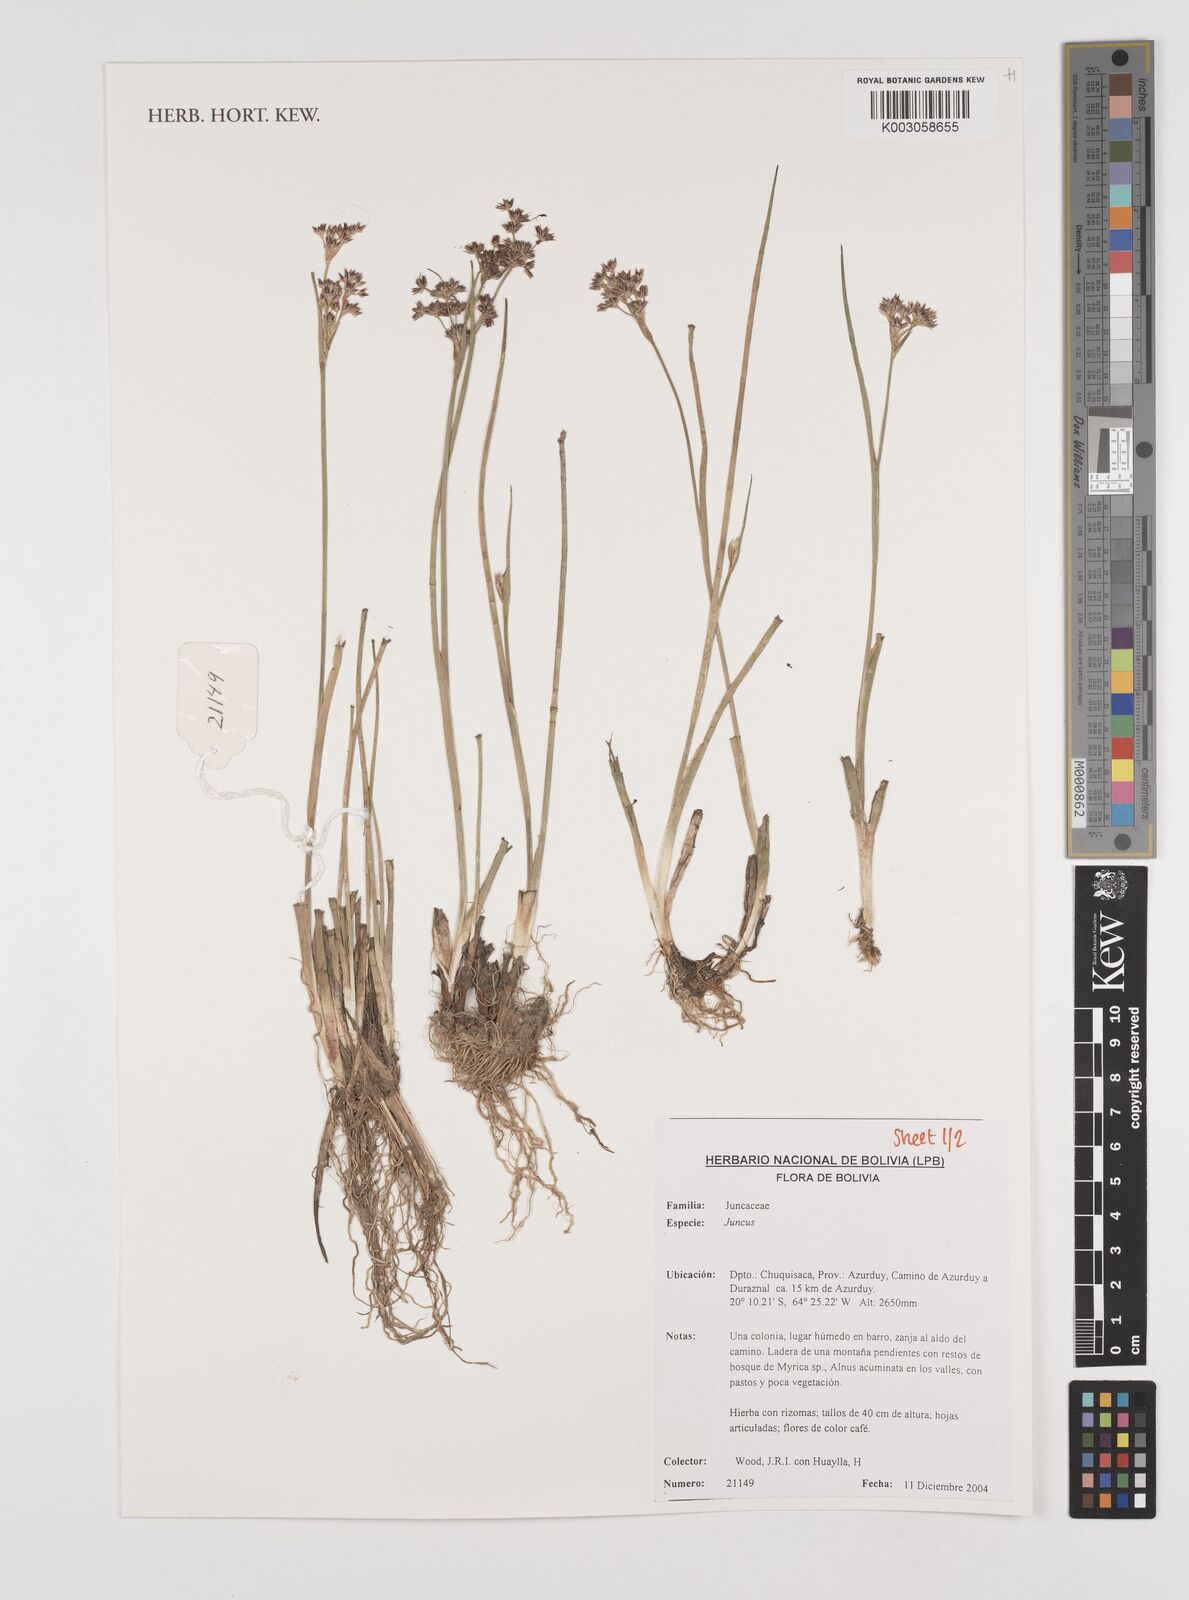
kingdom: Plantae
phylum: Tracheophyta
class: Liliopsida
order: Poales
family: Juncaceae
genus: Juncus
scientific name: Juncus
